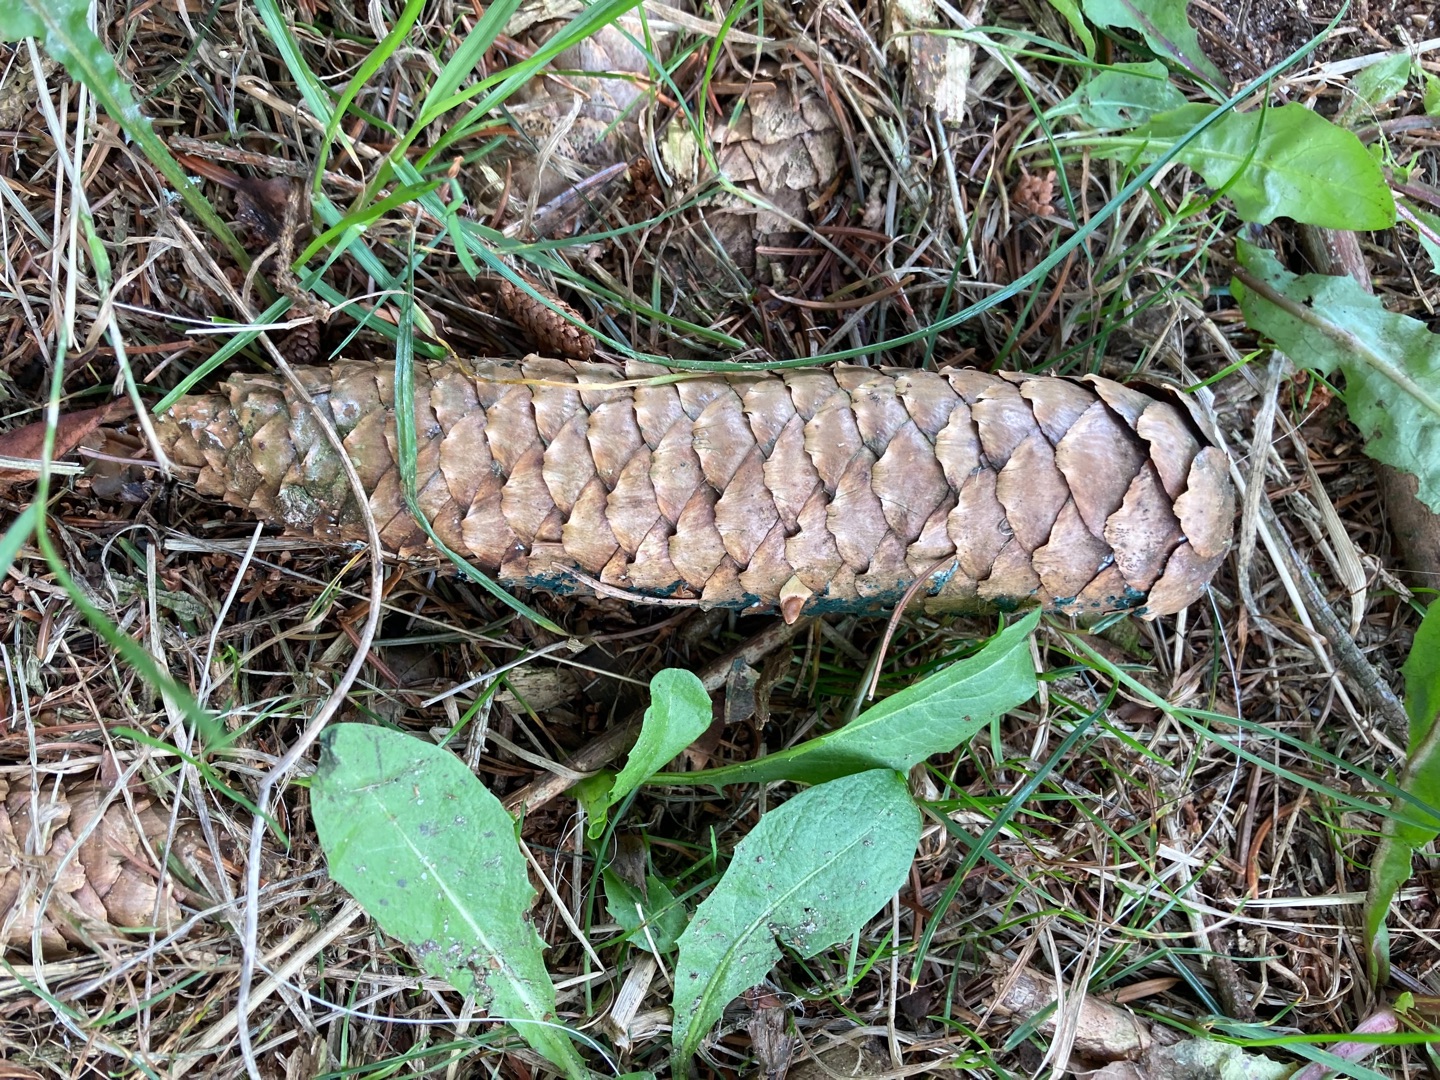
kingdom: Plantae
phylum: Tracheophyta
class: Pinopsida
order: Pinales
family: Pinaceae
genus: Picea
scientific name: Picea abies
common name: Rød-gran
